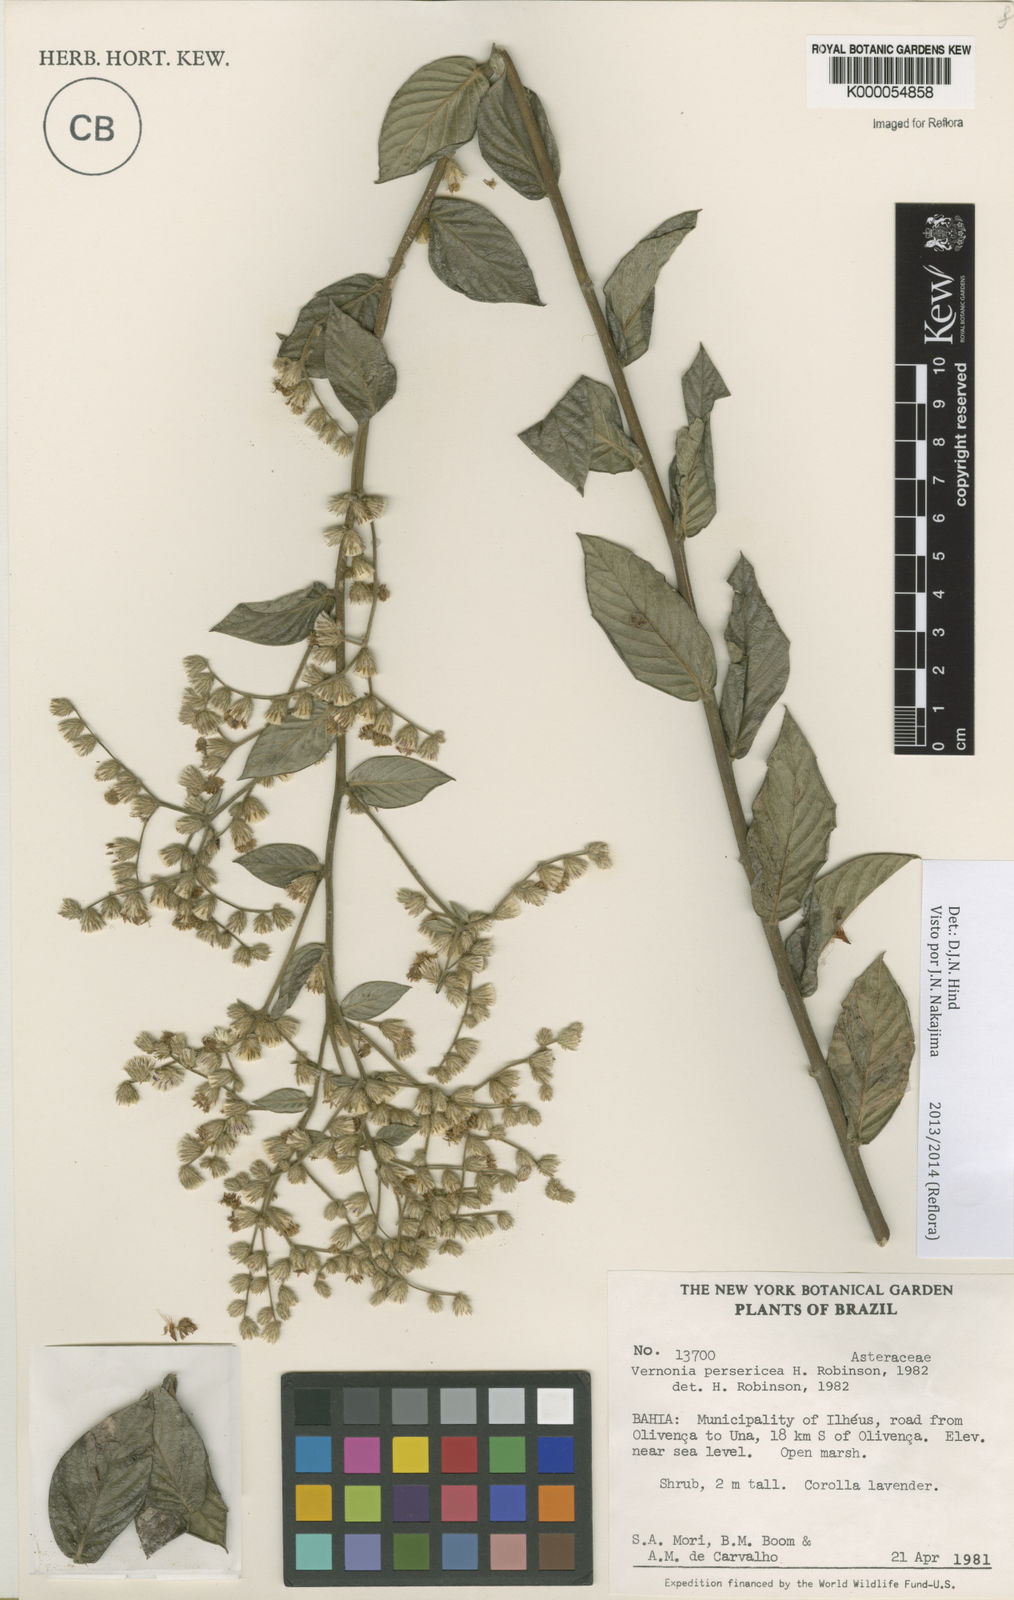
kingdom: Plantae
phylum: Tracheophyta
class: Magnoliopsida
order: Asterales
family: Asteraceae
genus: Lepidaploa
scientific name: Lepidaploa persericea
